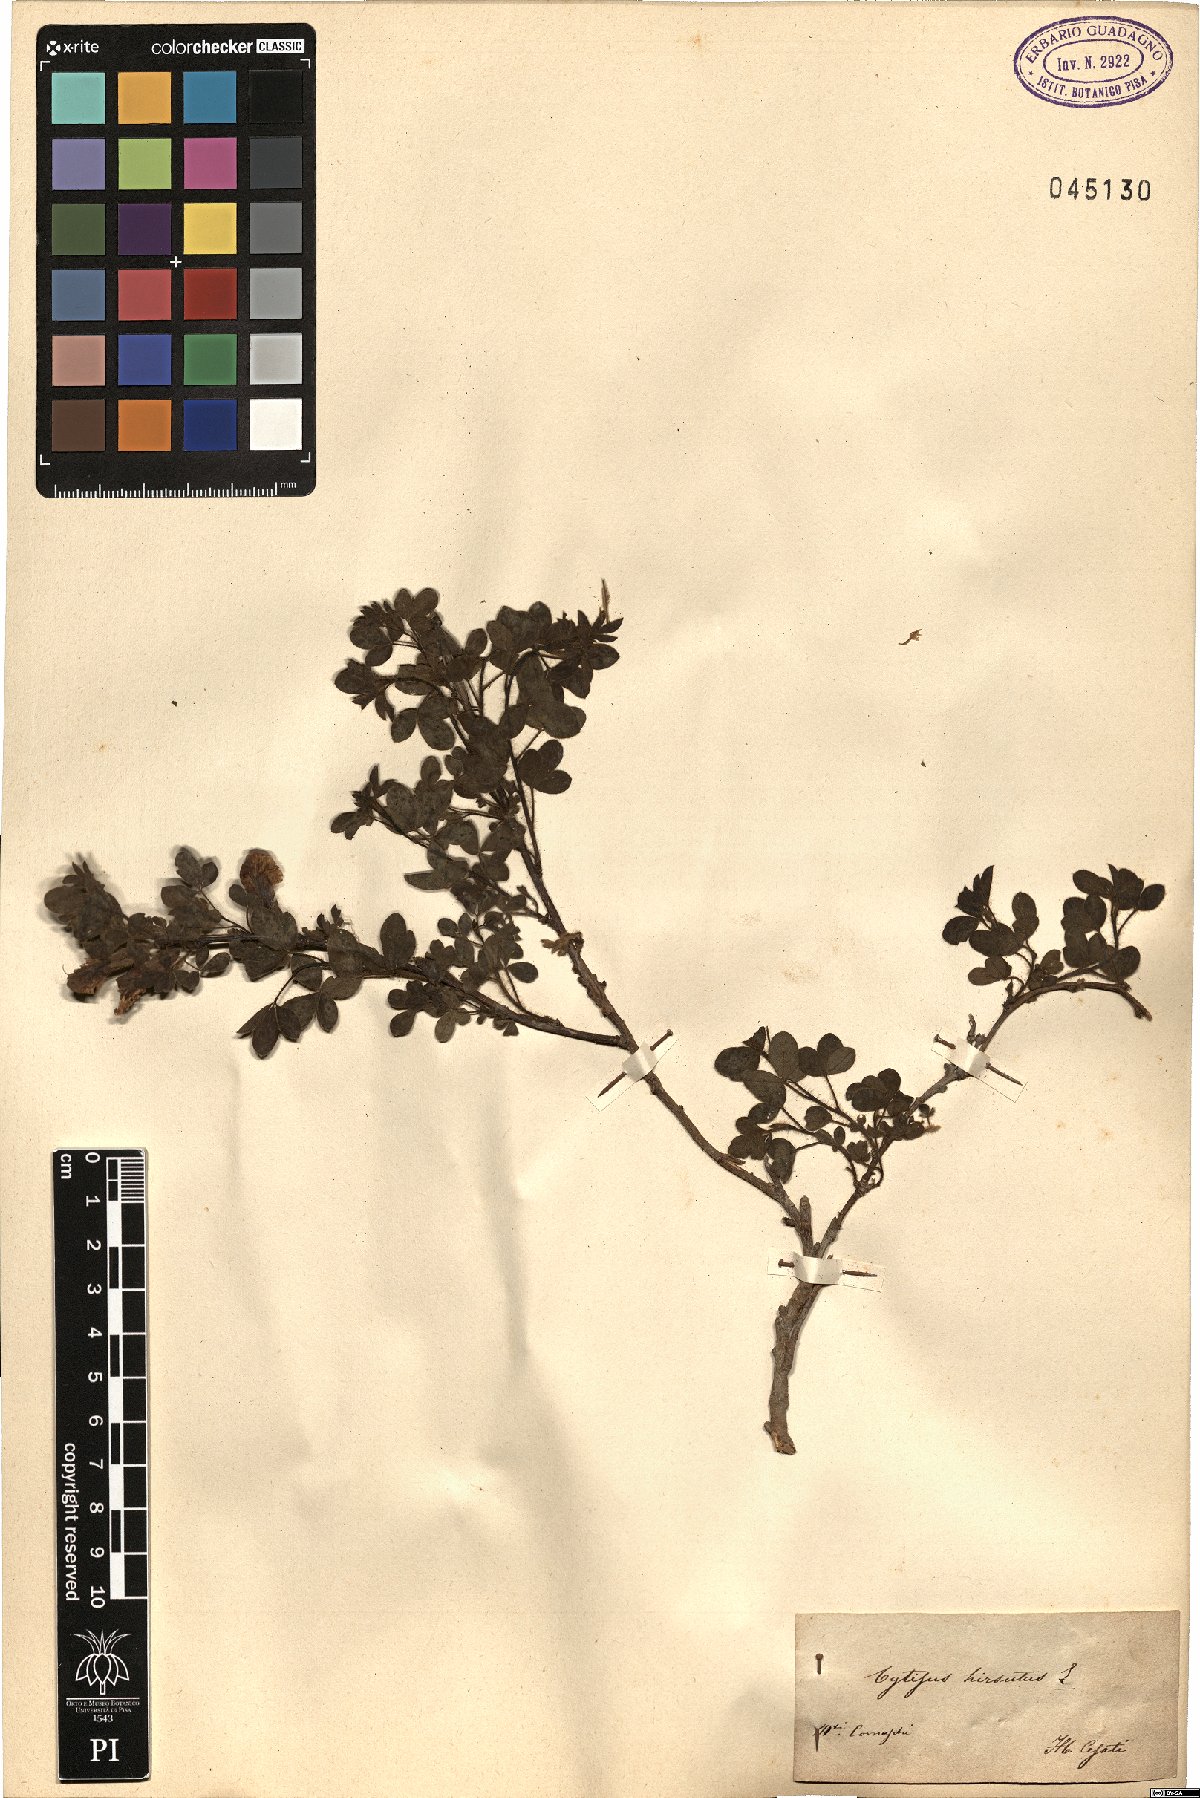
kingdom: Plantae
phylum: Tracheophyta
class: Magnoliopsida
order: Fabales
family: Fabaceae
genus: Chamaecytisus
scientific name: Chamaecytisus hirsutus
